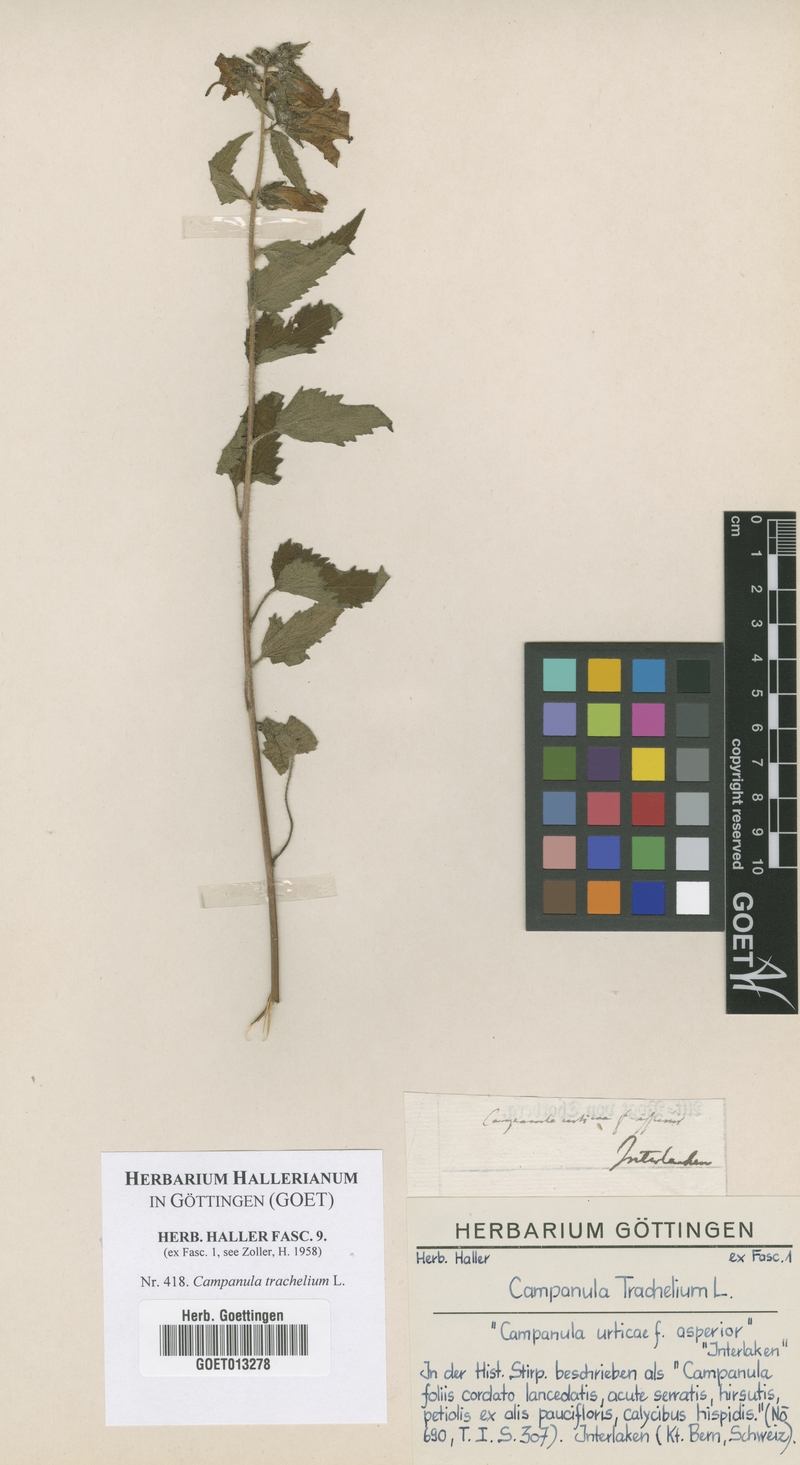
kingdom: Plantae
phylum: Tracheophyta
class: Magnoliopsida
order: Asterales
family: Campanulaceae
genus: Campanula
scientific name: Campanula trachelium
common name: Nettle-leaved bellflower
